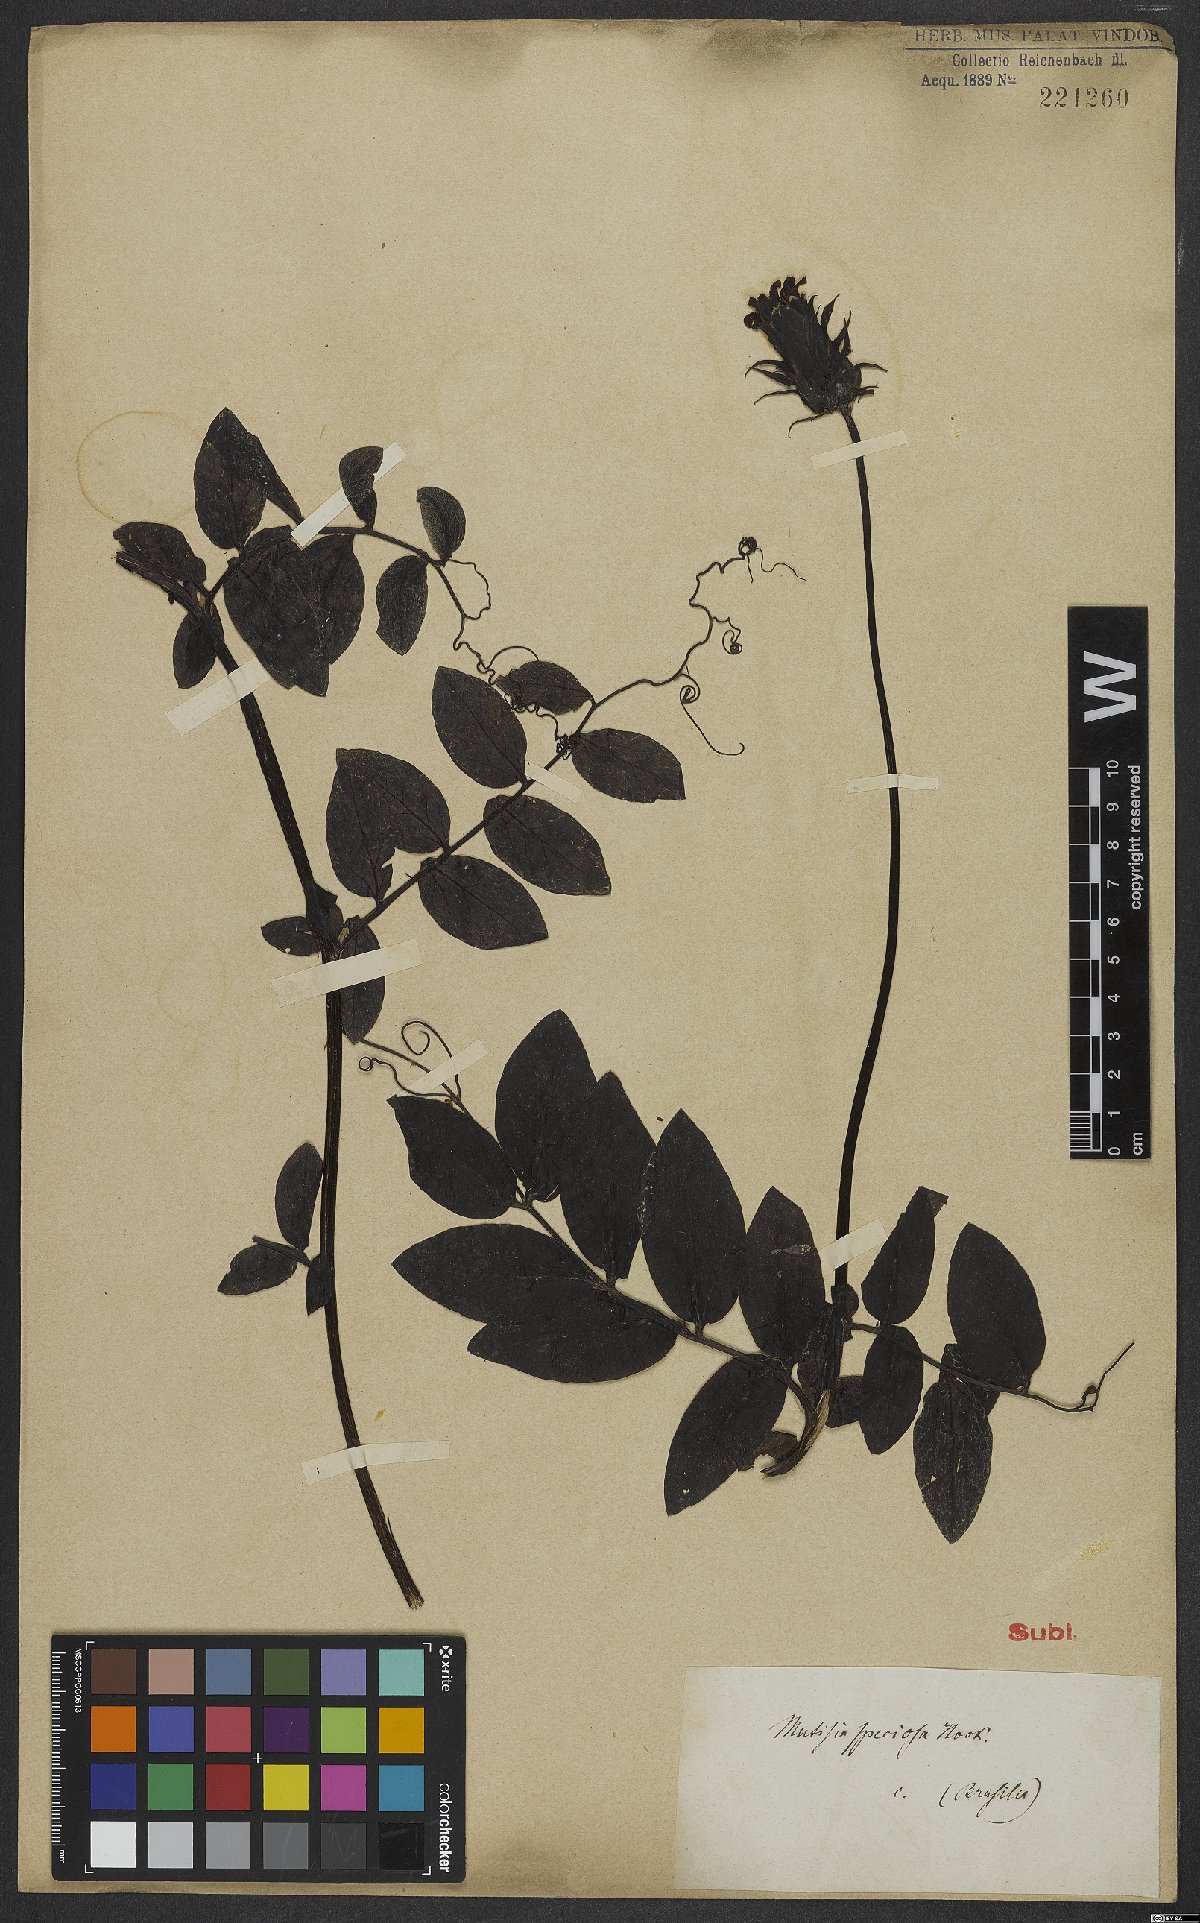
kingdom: Plantae
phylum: Tracheophyta
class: Magnoliopsida
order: Asterales
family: Asteraceae
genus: Mutisia
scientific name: Mutisia speciosa
